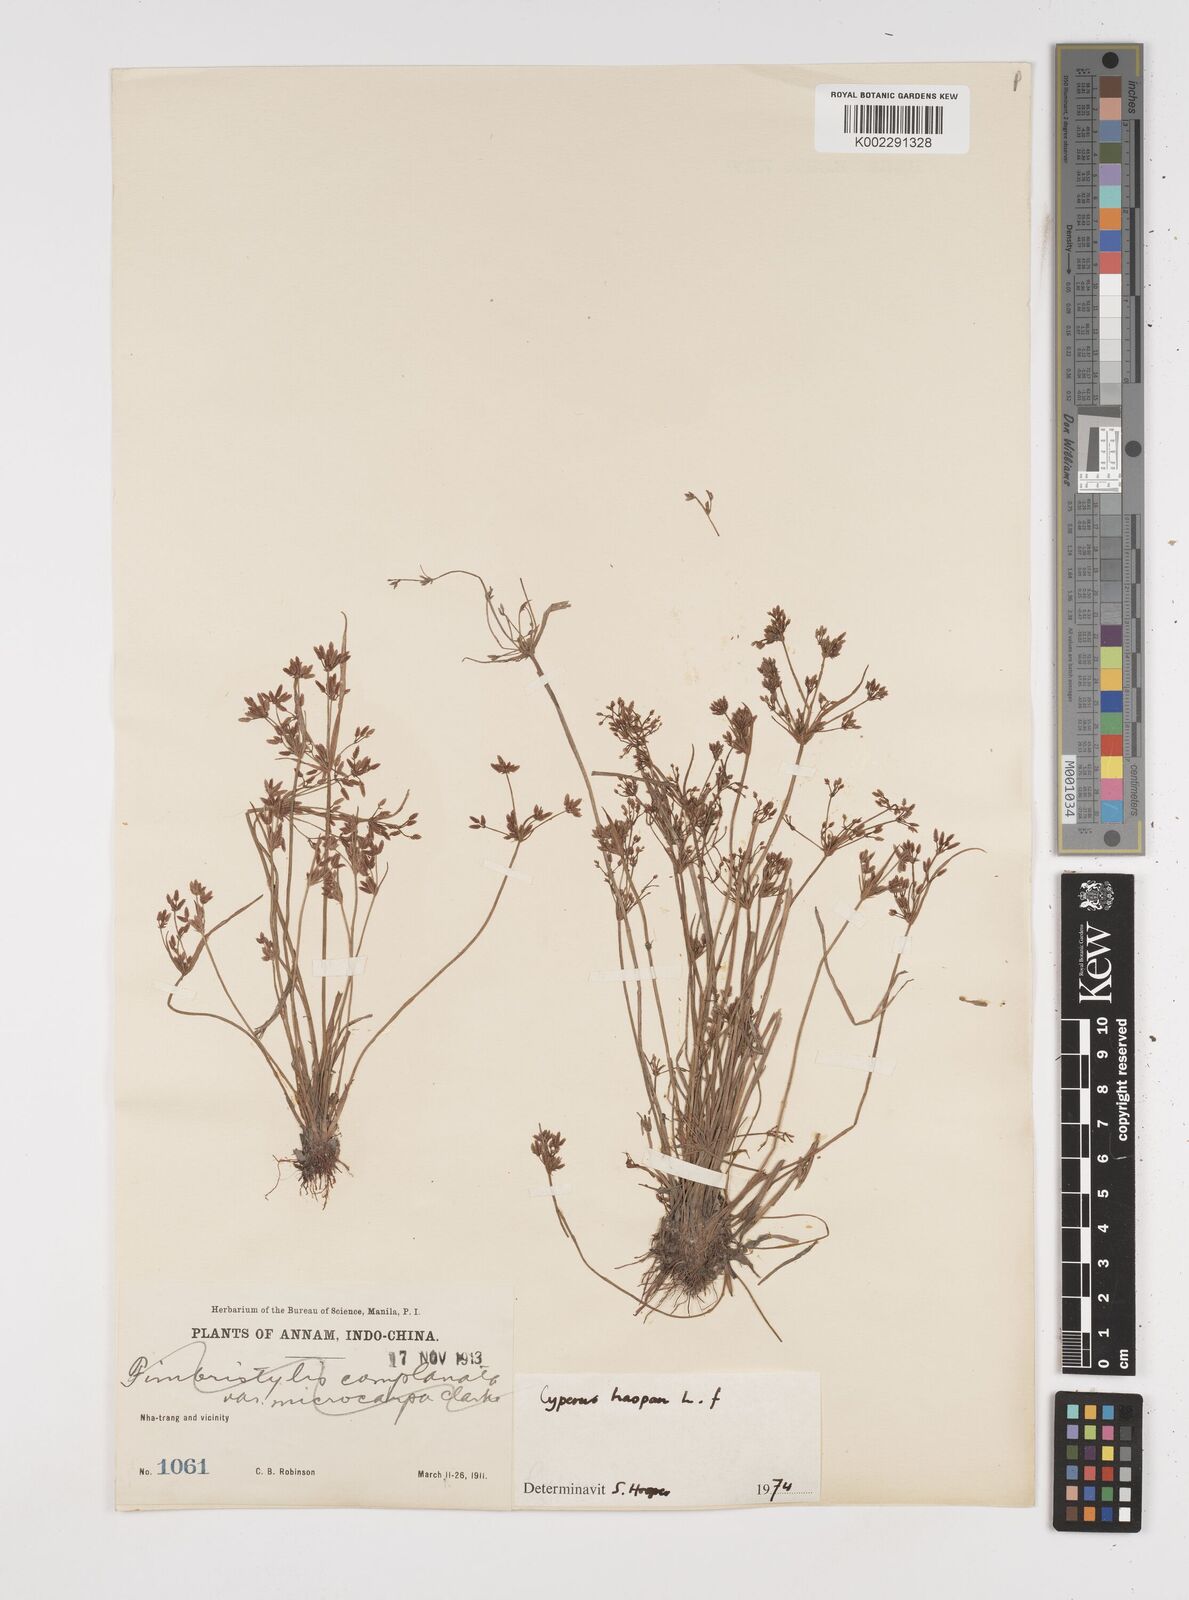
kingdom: Plantae
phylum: Tracheophyta
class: Liliopsida
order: Poales
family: Cyperaceae
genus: Cyperus
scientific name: Cyperus haspan
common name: Haspan flatsedge
